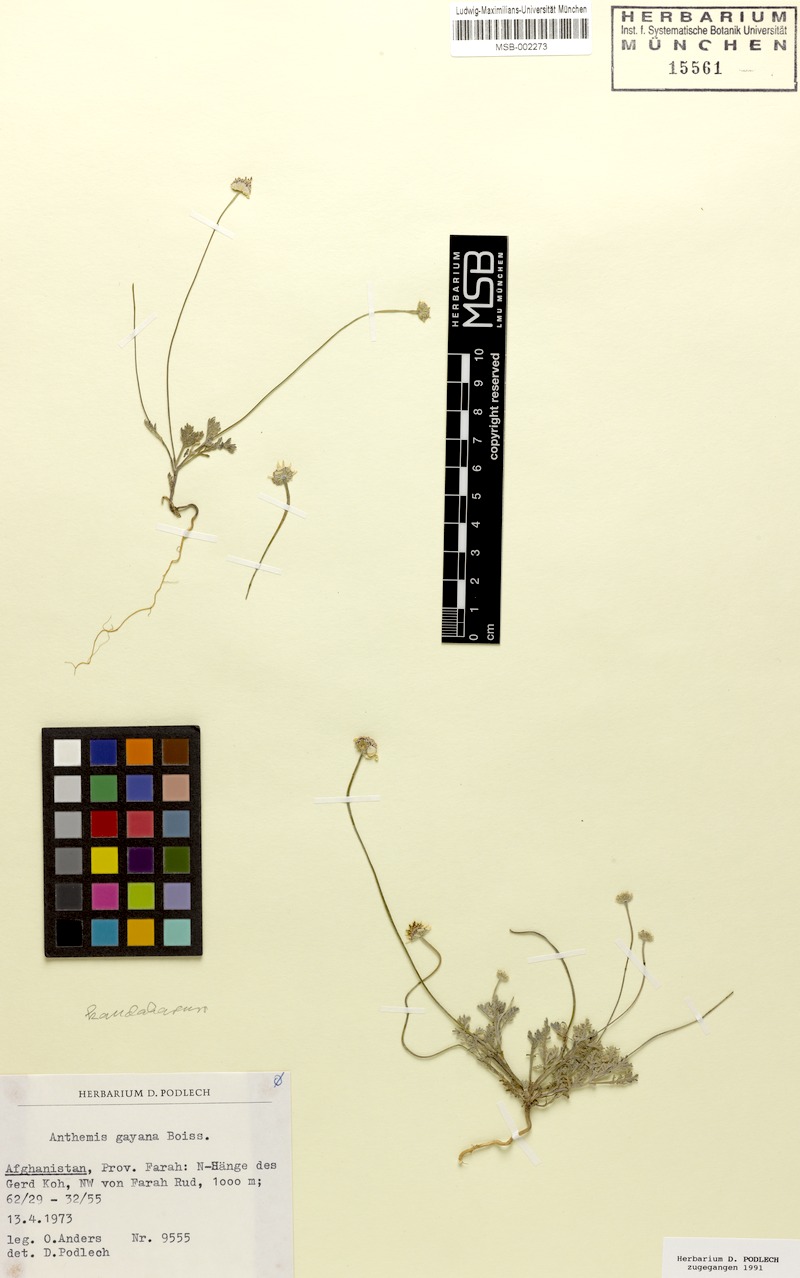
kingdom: Plantae
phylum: Tracheophyta
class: Magnoliopsida
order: Asterales
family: Asteraceae
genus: Anthemis
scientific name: Anthemis kandaharica
